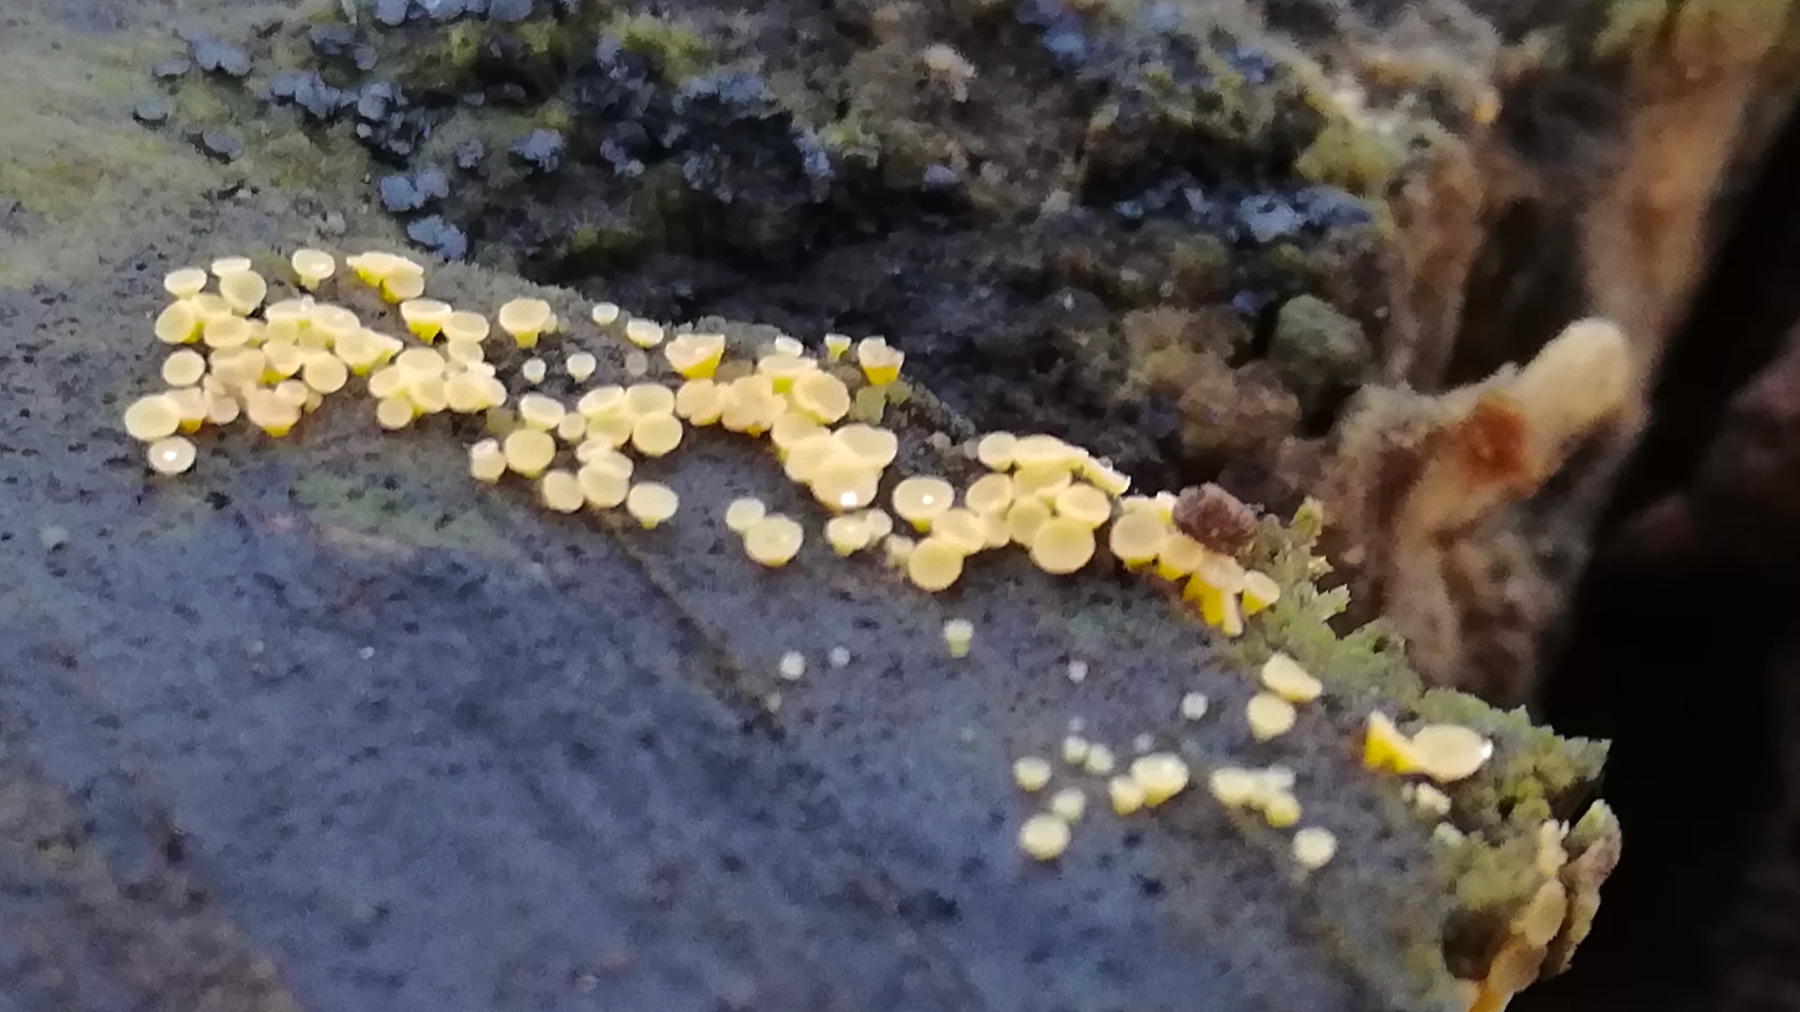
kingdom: Fungi
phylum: Ascomycota
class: Leotiomycetes
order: Helotiales
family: Helotiaceae
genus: Bisporella
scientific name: Bisporella
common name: snitskive
